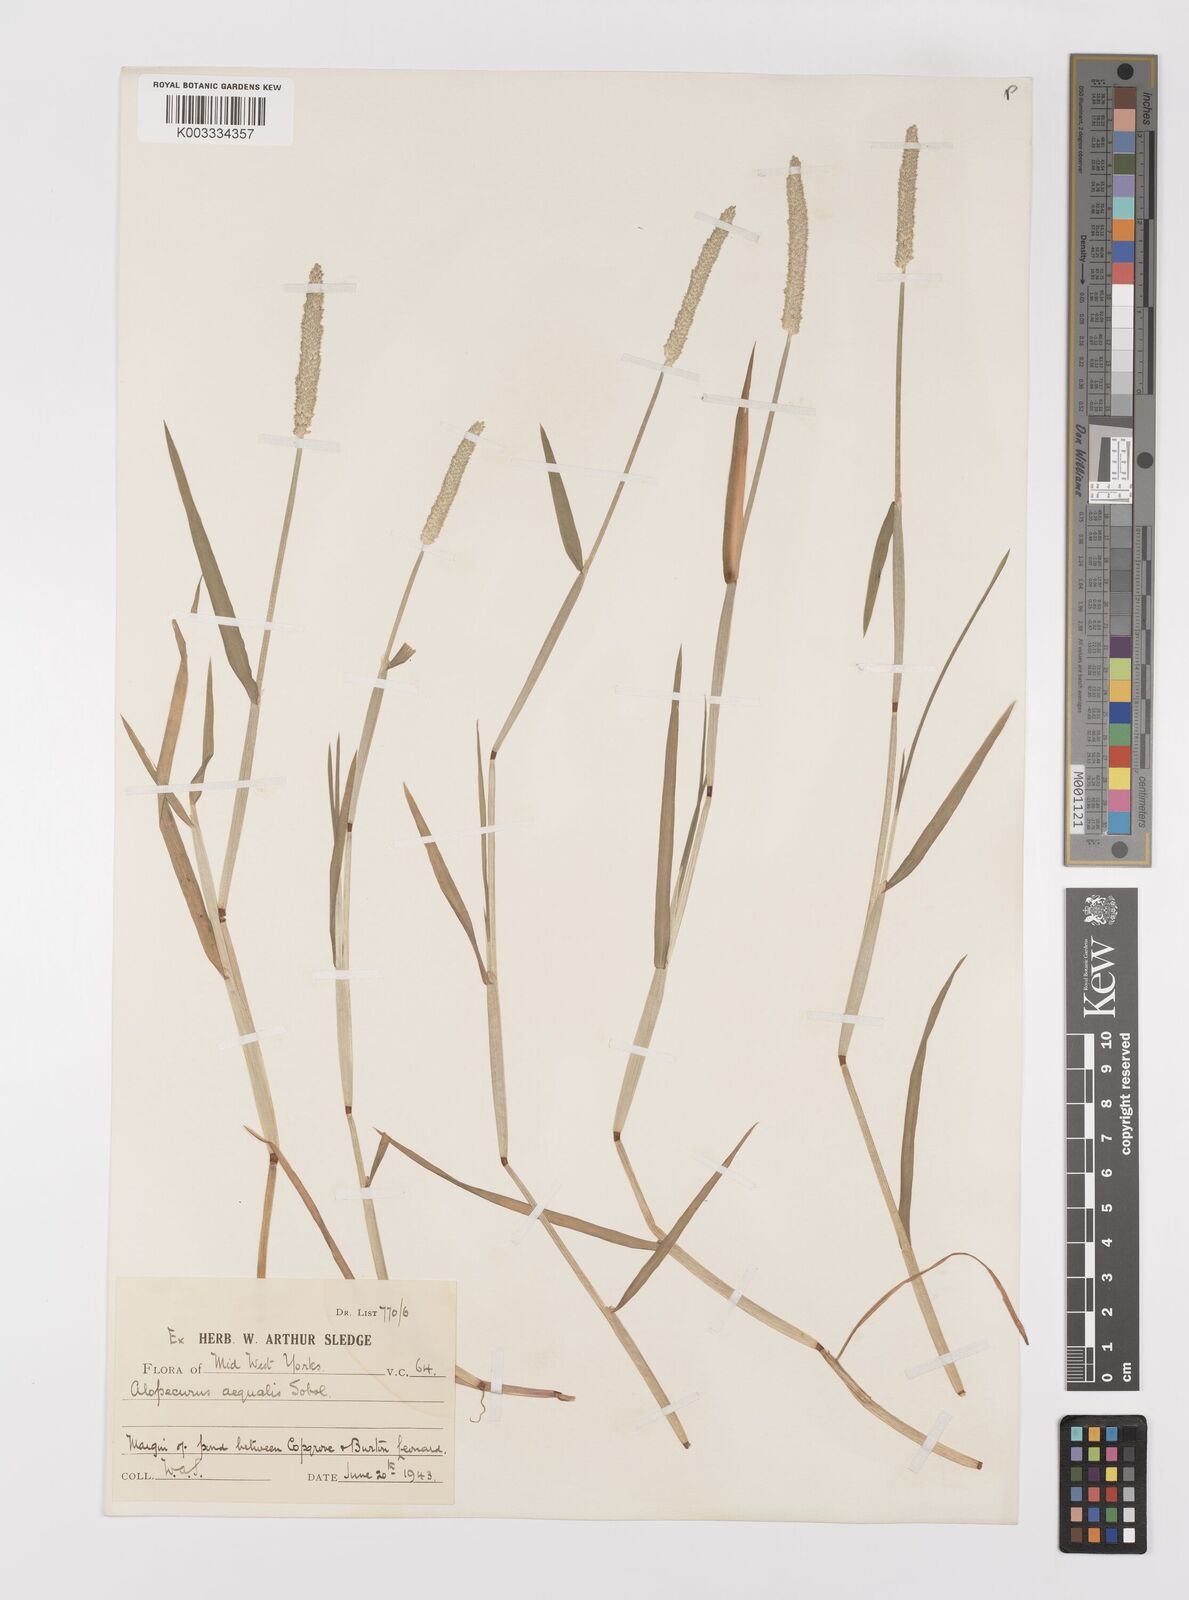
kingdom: Plantae
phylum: Tracheophyta
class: Liliopsida
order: Poales
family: Poaceae
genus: Alopecurus
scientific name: Alopecurus aequalis
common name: Orange foxtail
